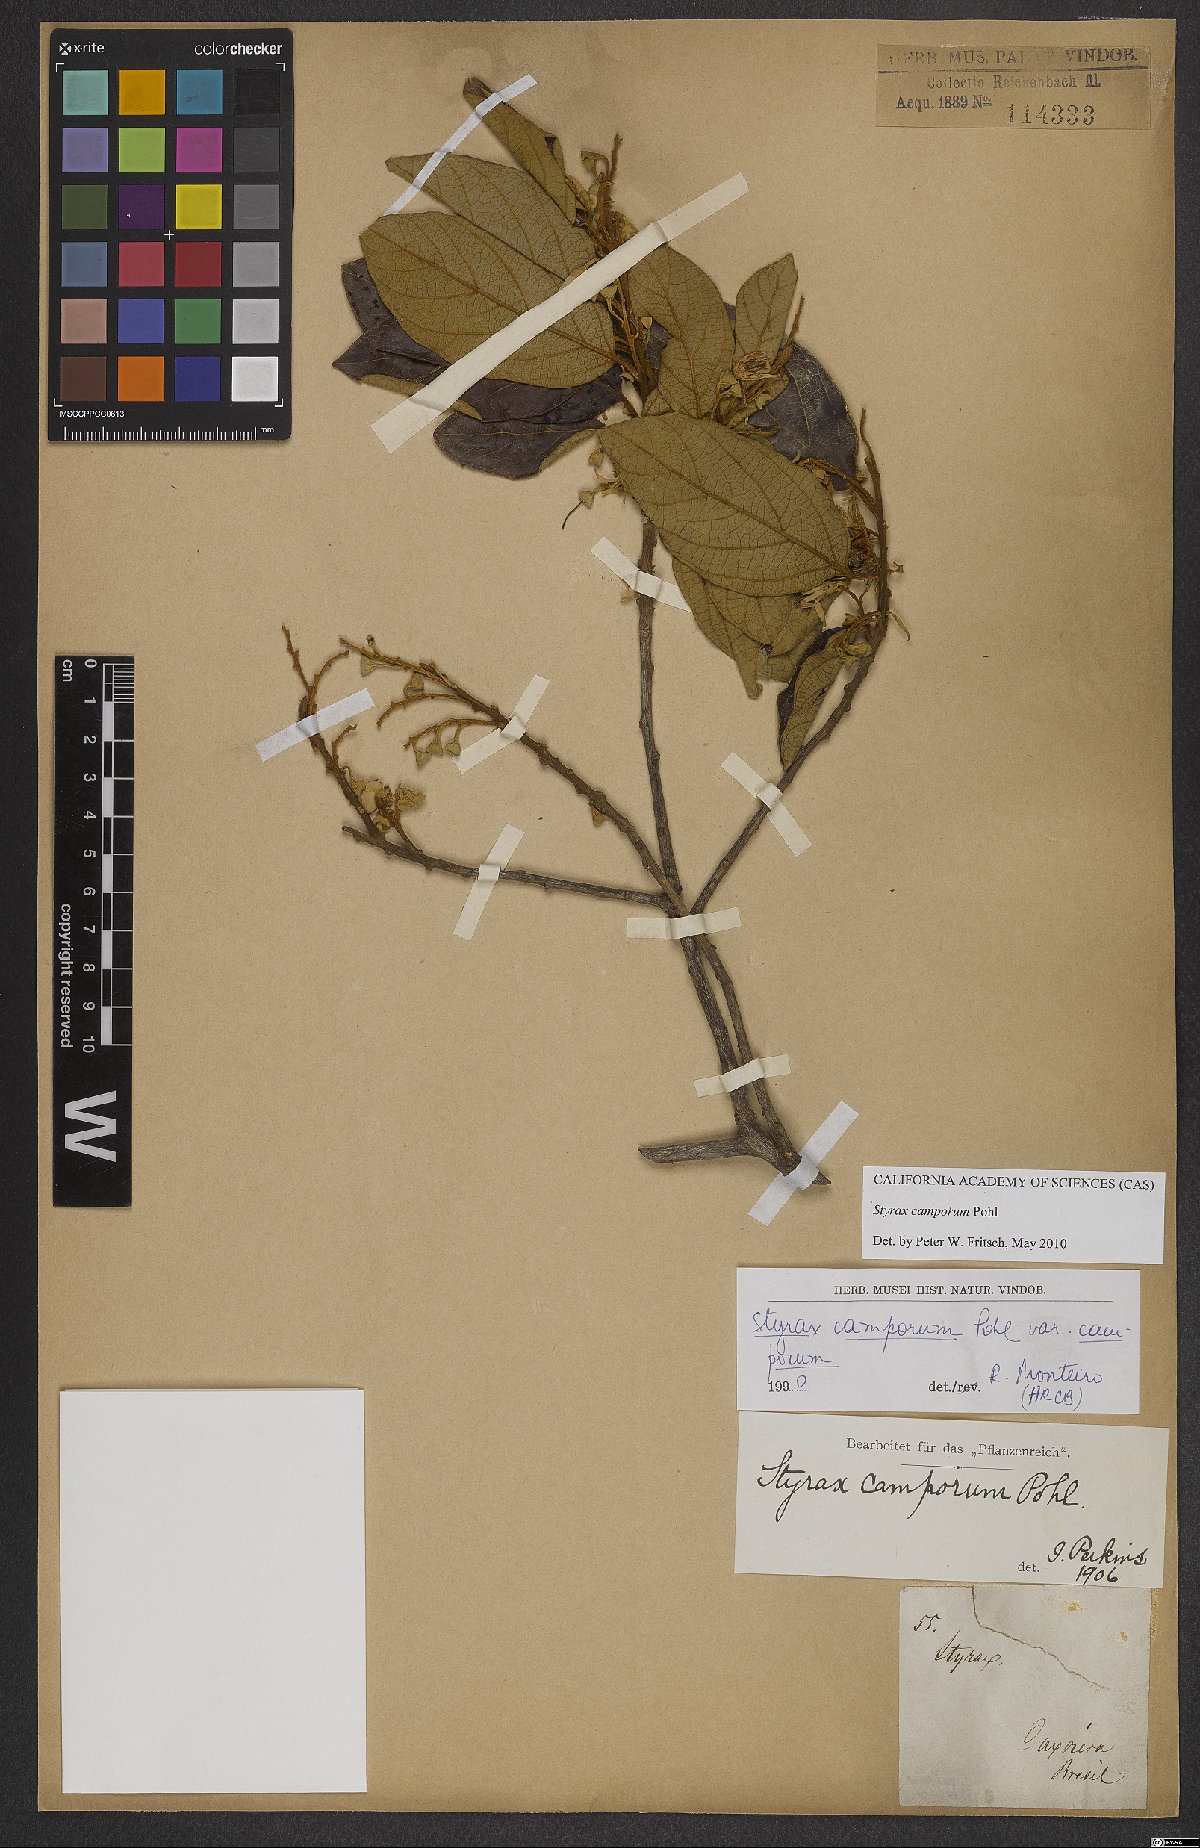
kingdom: Plantae
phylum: Tracheophyta
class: Magnoliopsida
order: Ericales
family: Styracaceae
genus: Styrax
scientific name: Styrax camporum
